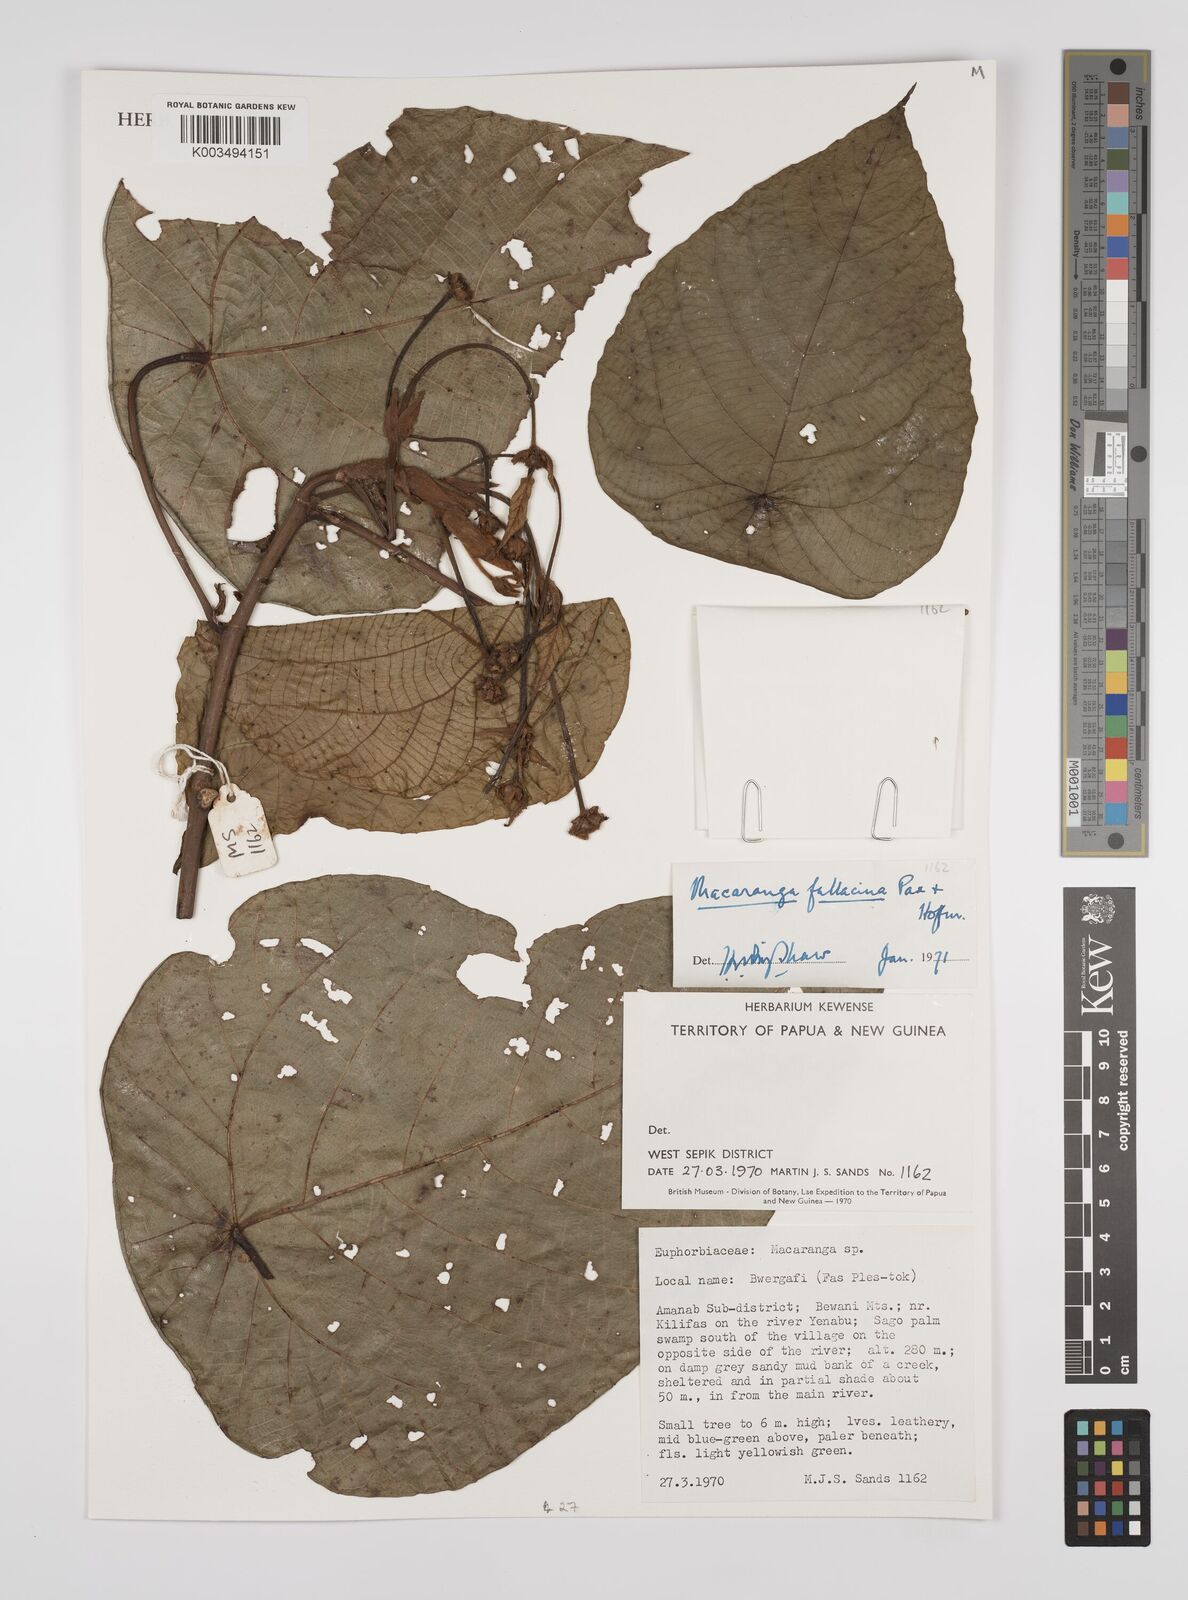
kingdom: Plantae
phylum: Tracheophyta
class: Magnoliopsida
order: Malpighiales
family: Euphorbiaceae
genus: Macaranga
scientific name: Macaranga fallacina
